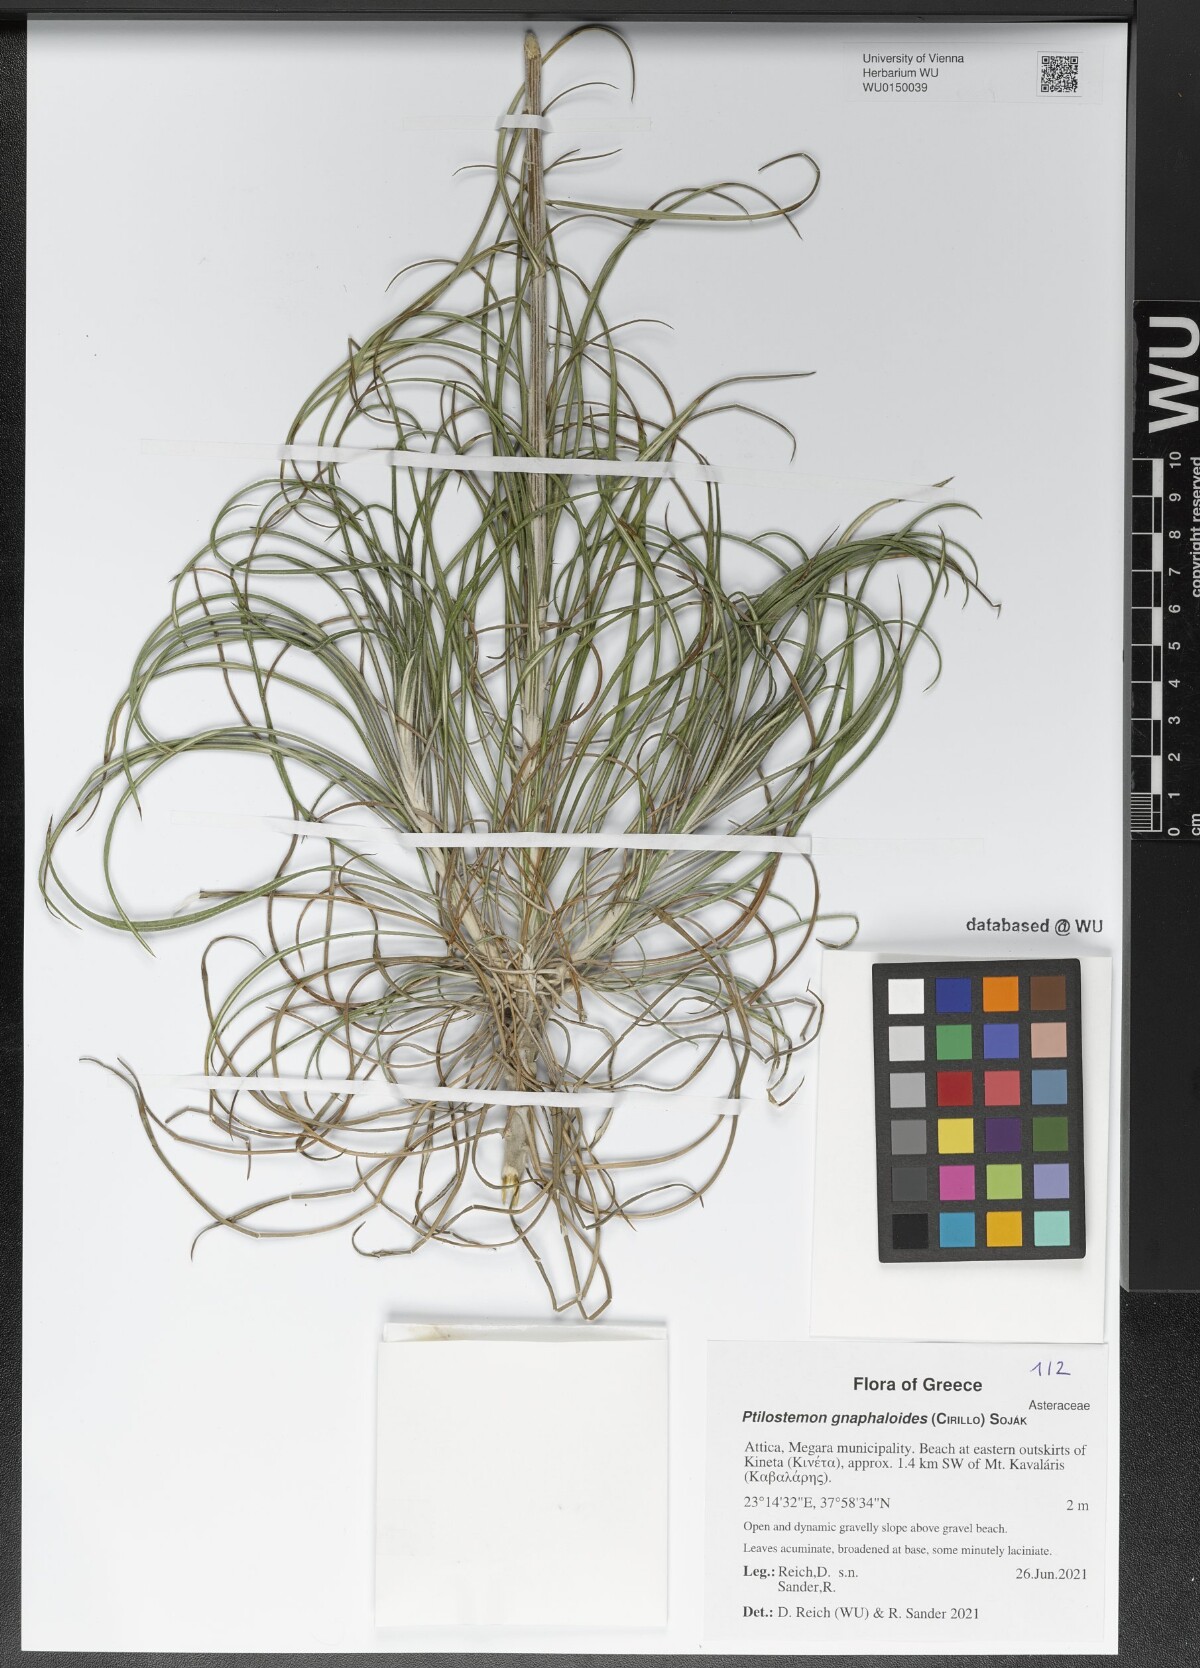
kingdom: Plantae
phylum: Tracheophyta
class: Magnoliopsida
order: Asterales
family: Asteraceae
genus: Ptilostemon
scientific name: Ptilostemon gnaphaloides
